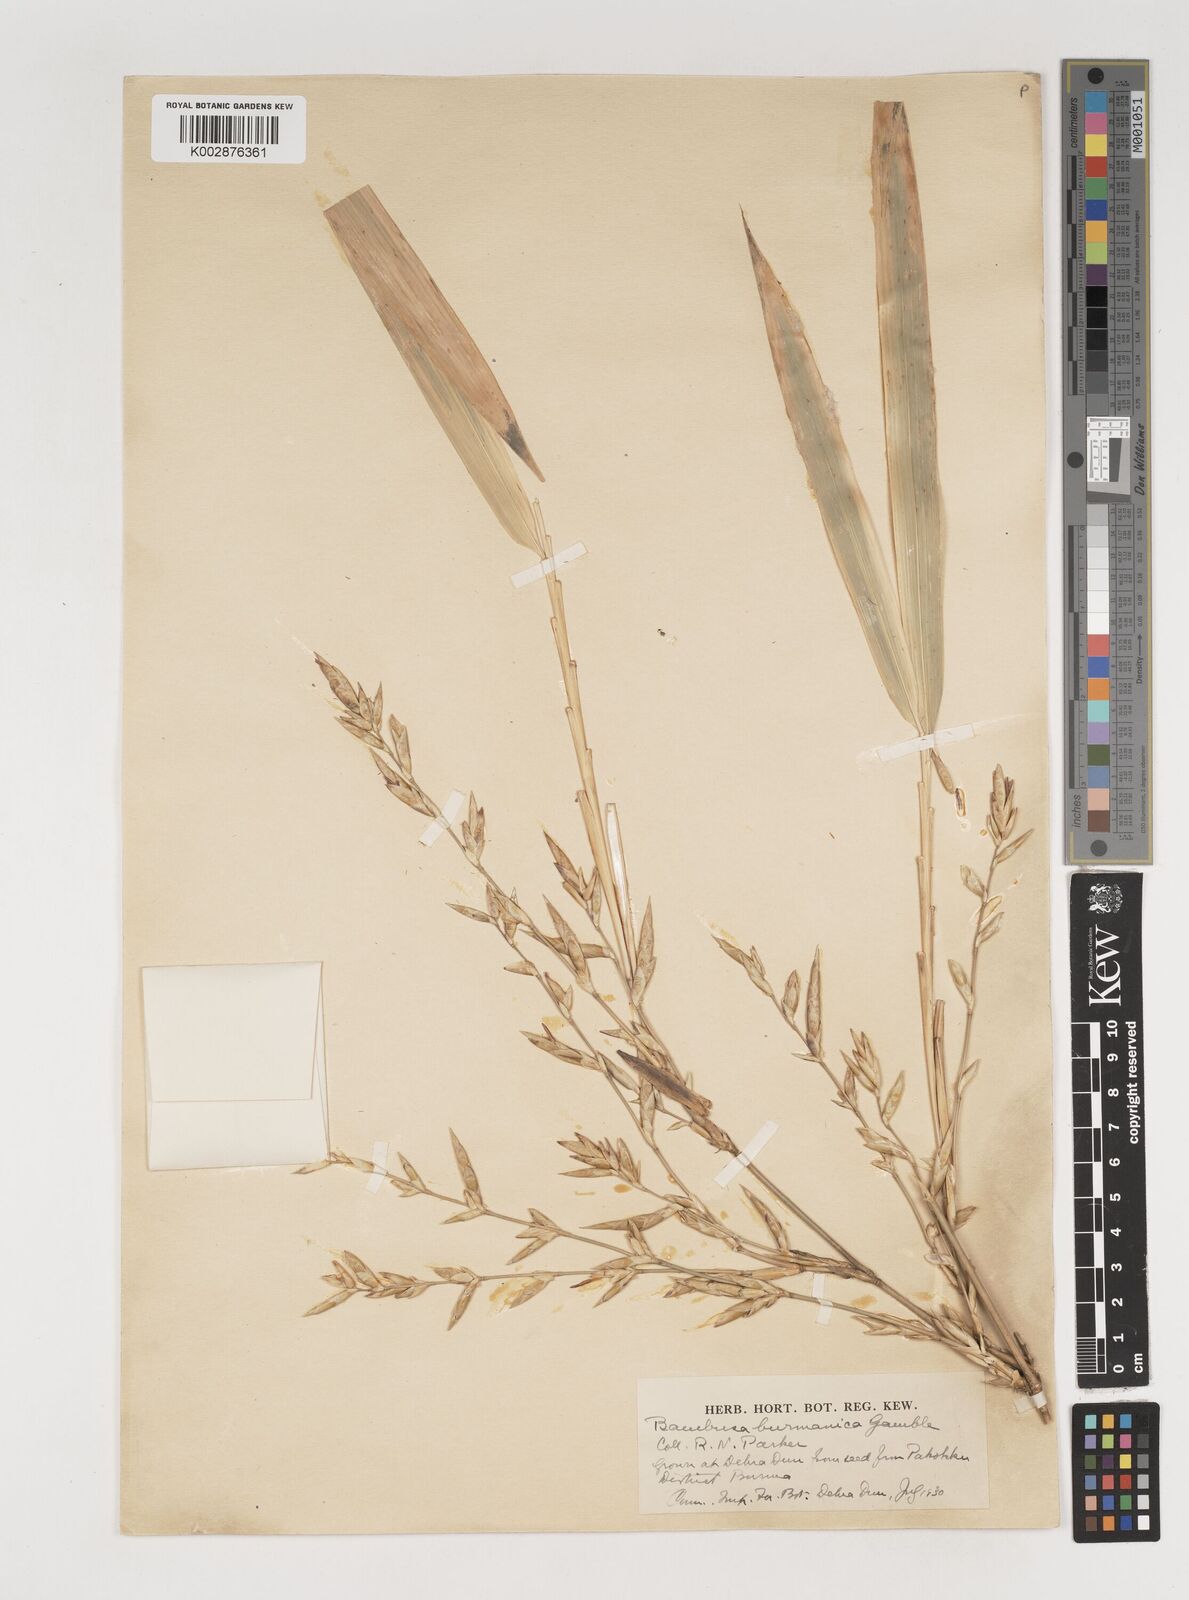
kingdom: Plantae
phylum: Tracheophyta
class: Liliopsida
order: Poales
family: Poaceae
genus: Bambusa
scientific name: Bambusa burmanica
